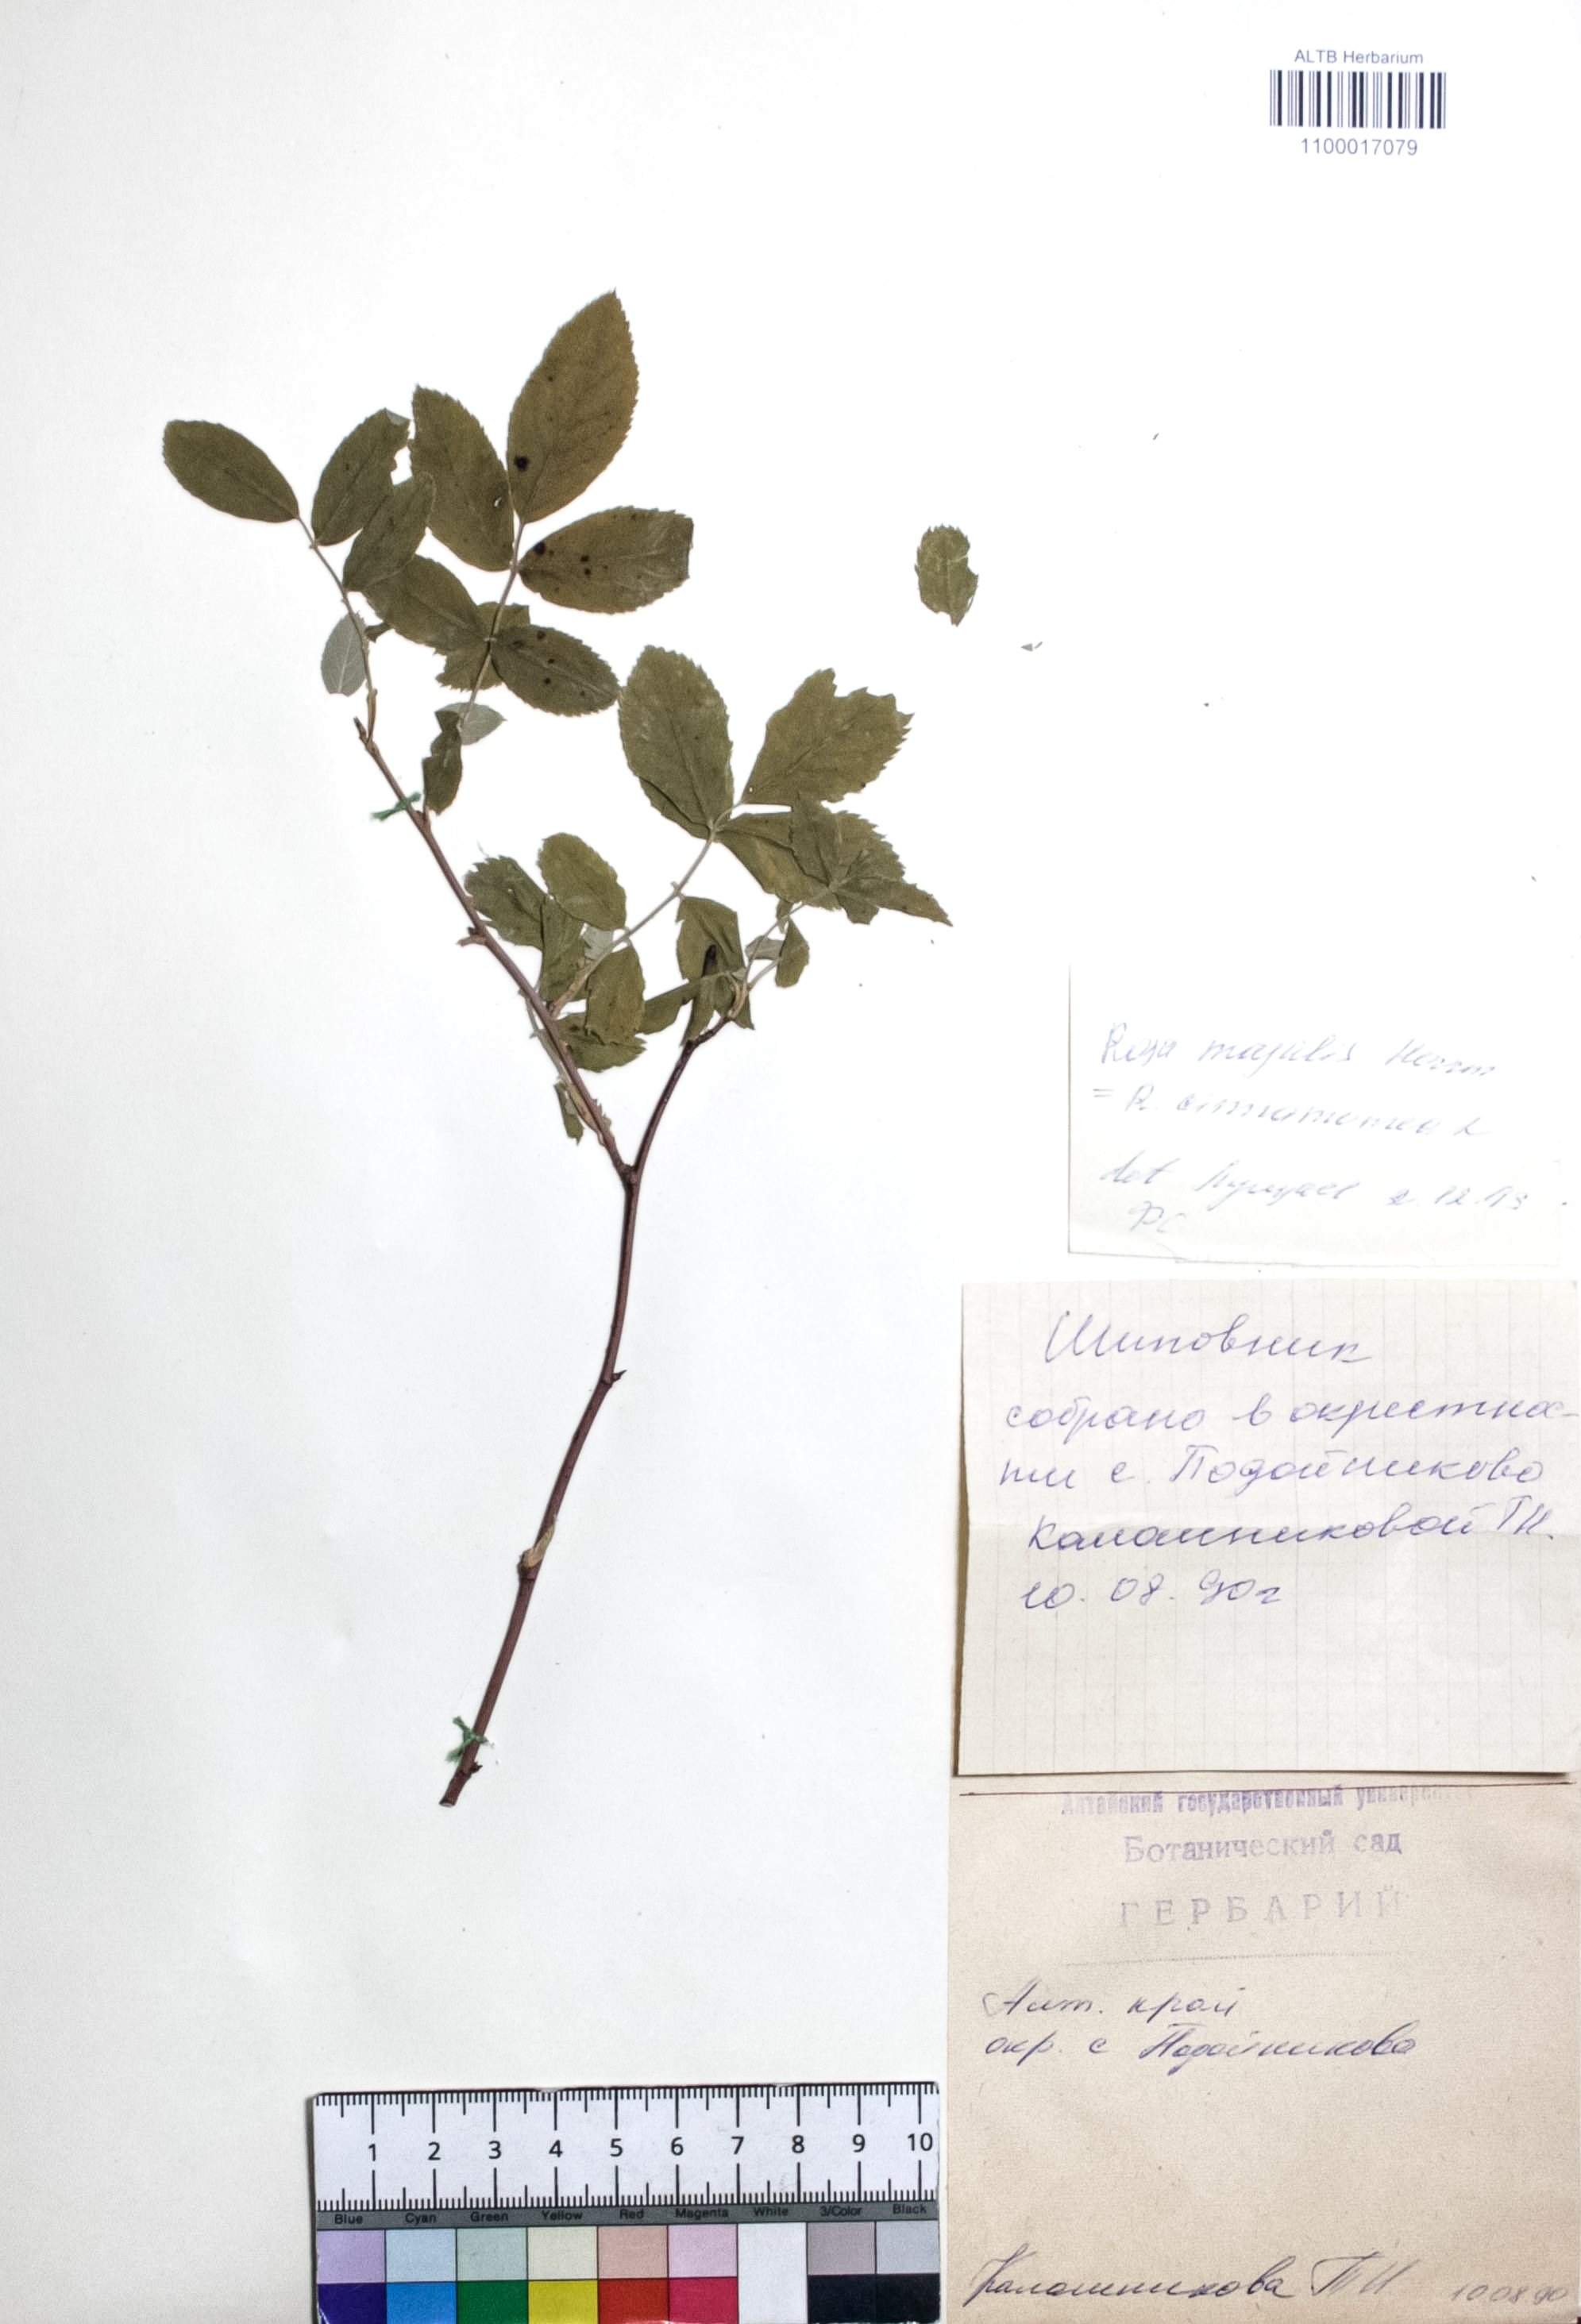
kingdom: Plantae
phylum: Tracheophyta
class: Magnoliopsida
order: Rosales
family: Rosaceae
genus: Rosa
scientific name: Rosa majalis
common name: Cinnamon rose
